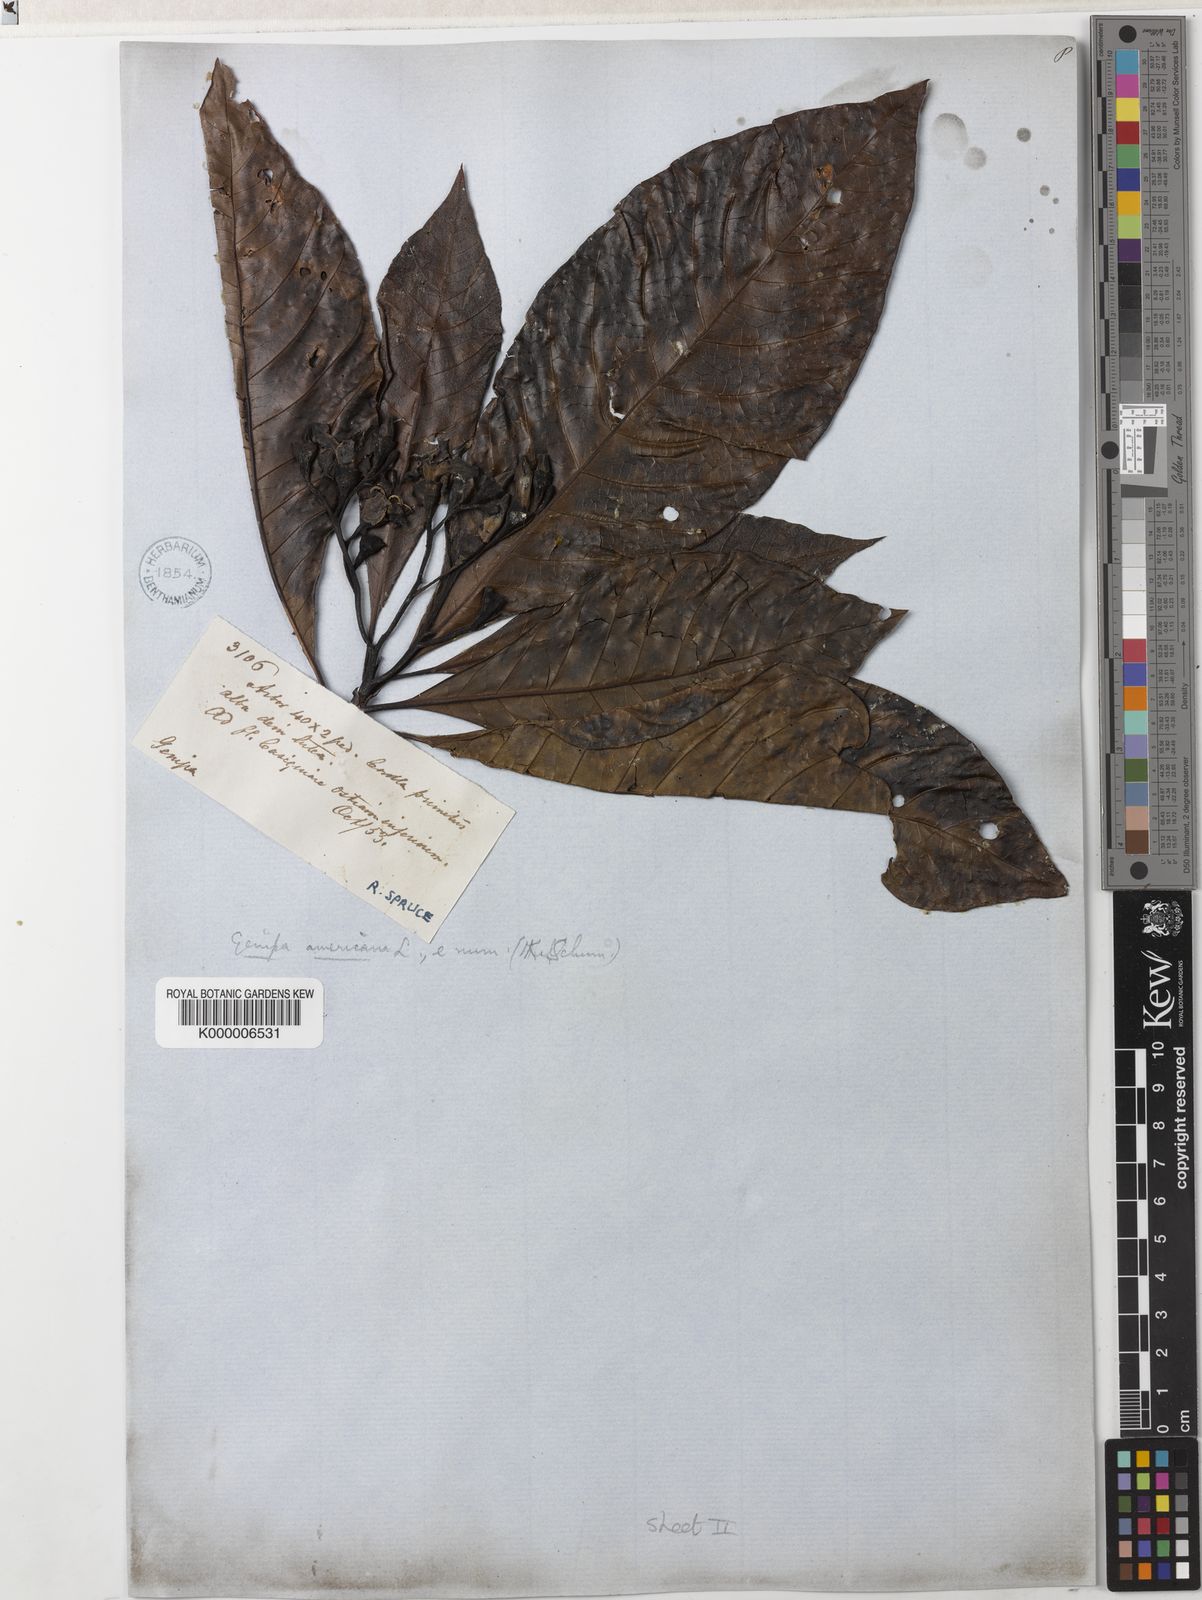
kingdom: Plantae
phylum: Tracheophyta
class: Magnoliopsida
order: Gentianales
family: Rubiaceae
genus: Genipa
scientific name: Genipa americana
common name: Genipap
